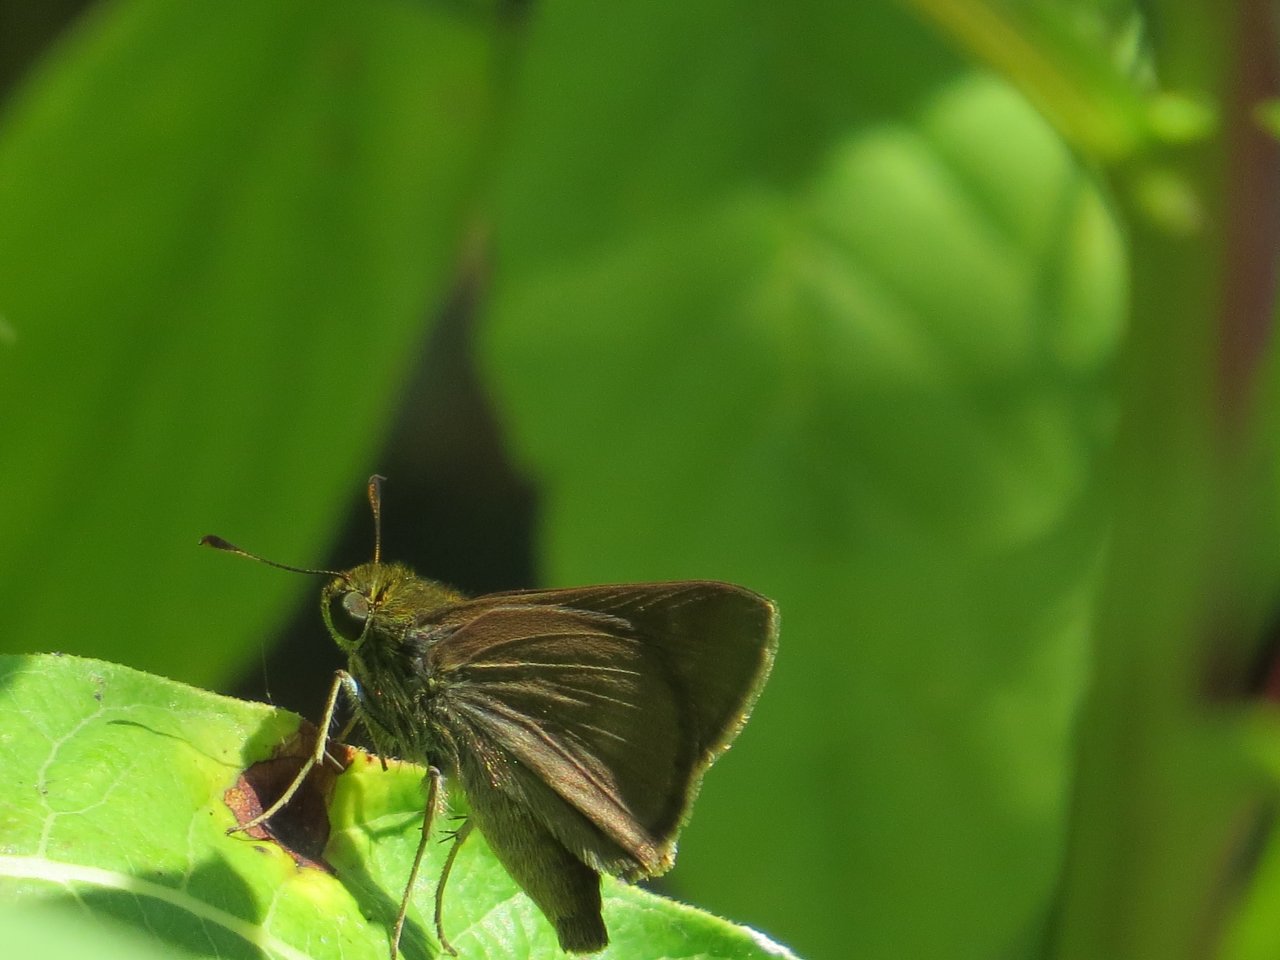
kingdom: Animalia
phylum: Arthropoda
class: Insecta
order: Lepidoptera
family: Hesperiidae
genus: Euphyes
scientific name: Euphyes vestris
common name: Dun Skipper
